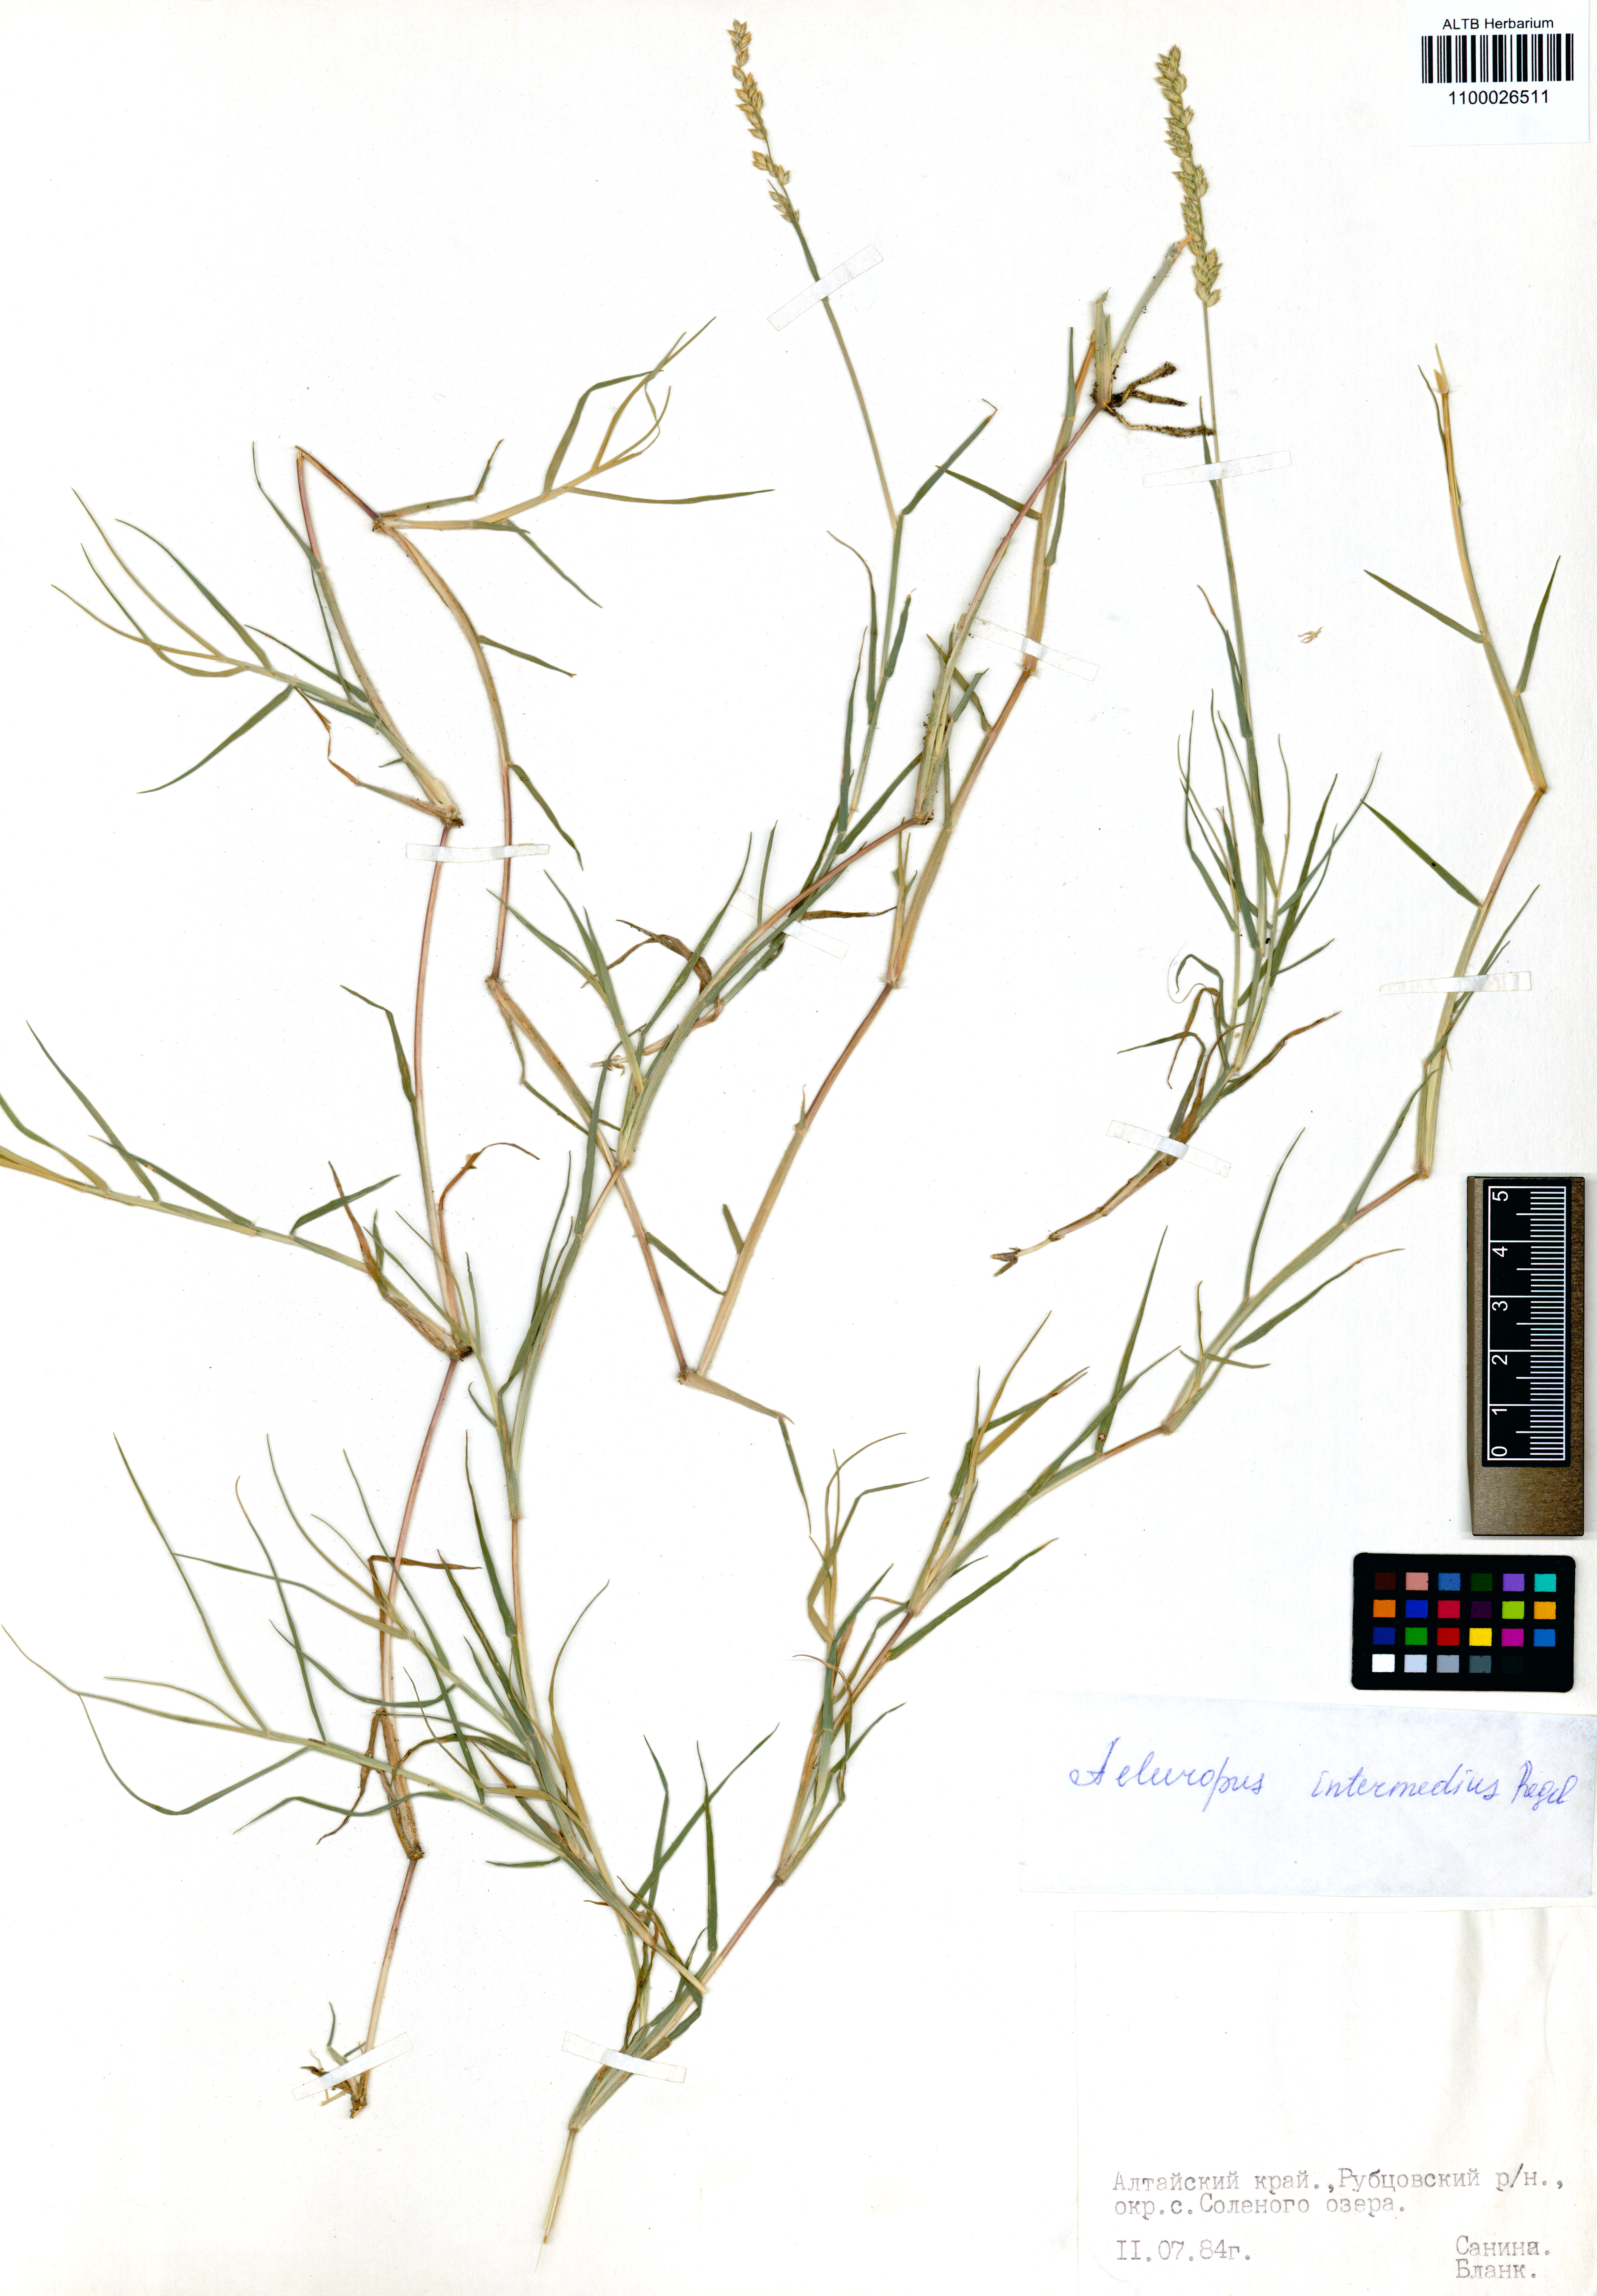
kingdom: Plantae
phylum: Tracheophyta
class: Liliopsida
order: Poales
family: Poaceae
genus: Aeluropus
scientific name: Aeluropus littoralis
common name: Indian walnut
